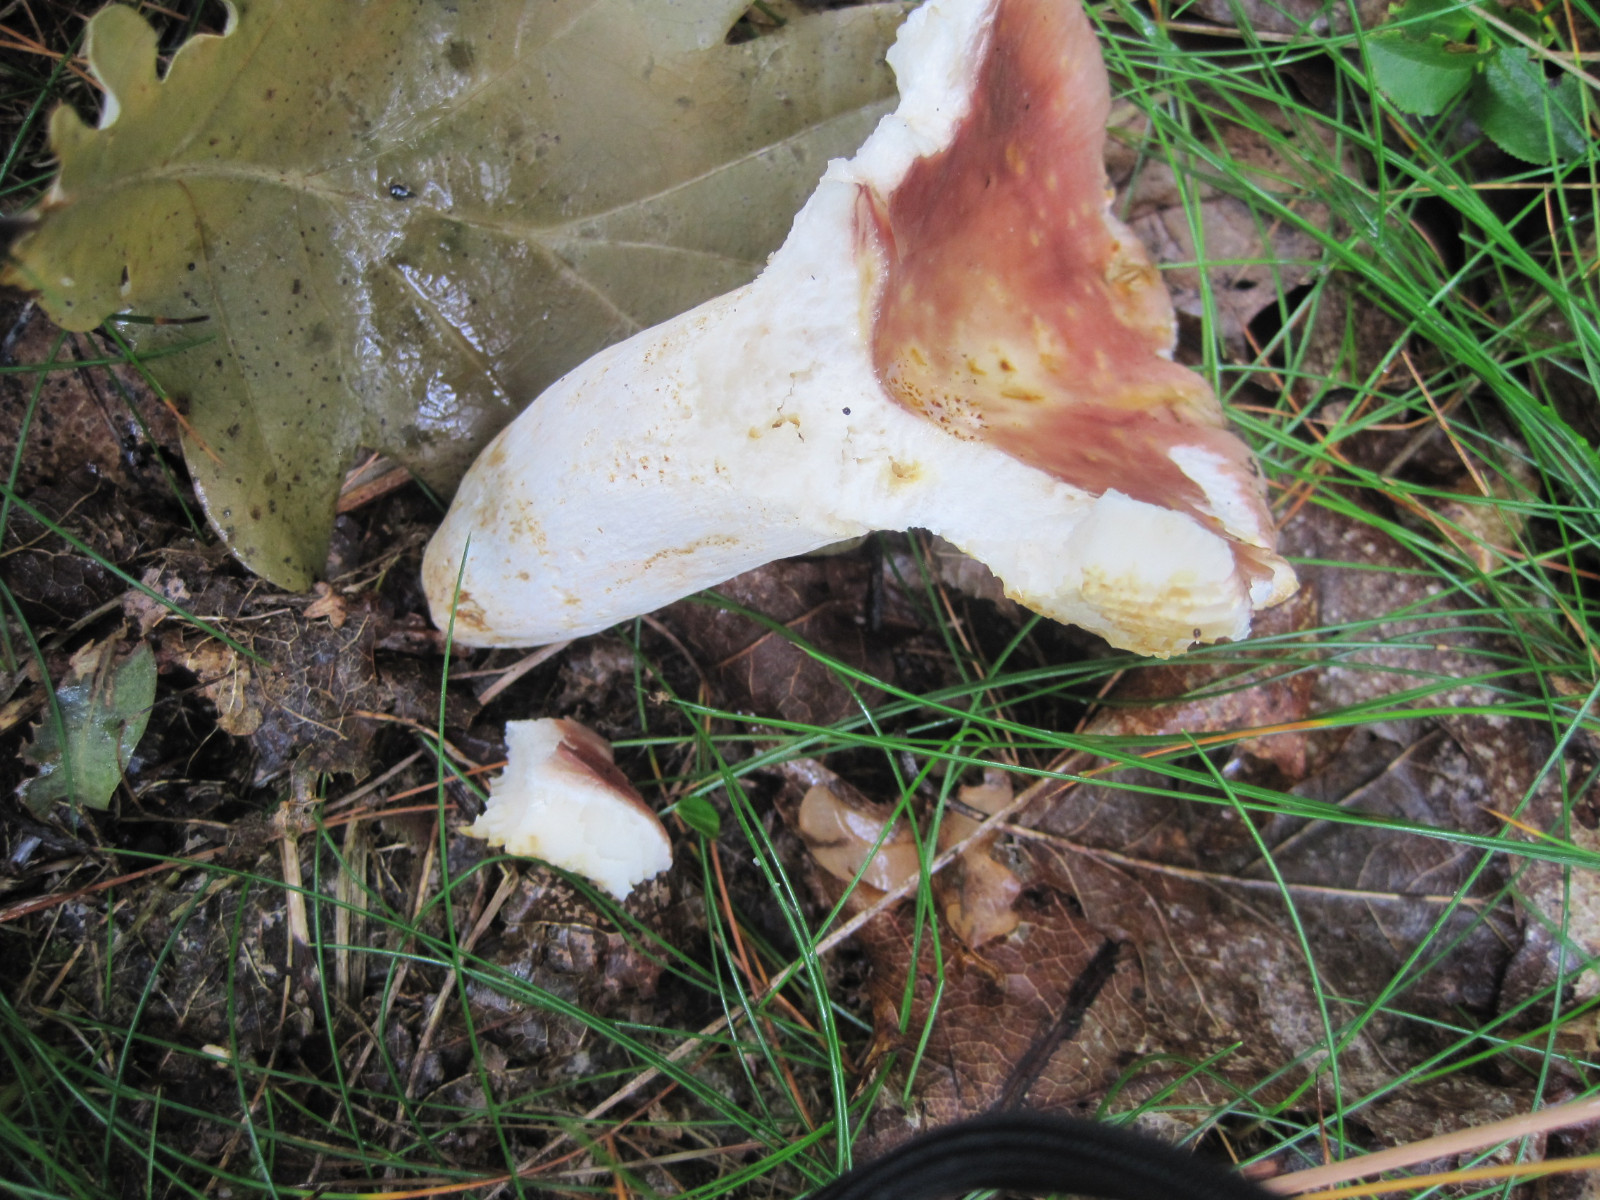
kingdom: Fungi
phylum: Basidiomycota
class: Agaricomycetes
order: Russulales
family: Russulaceae
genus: Russula
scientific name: Russula rosea
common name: fastkødet skørhat
